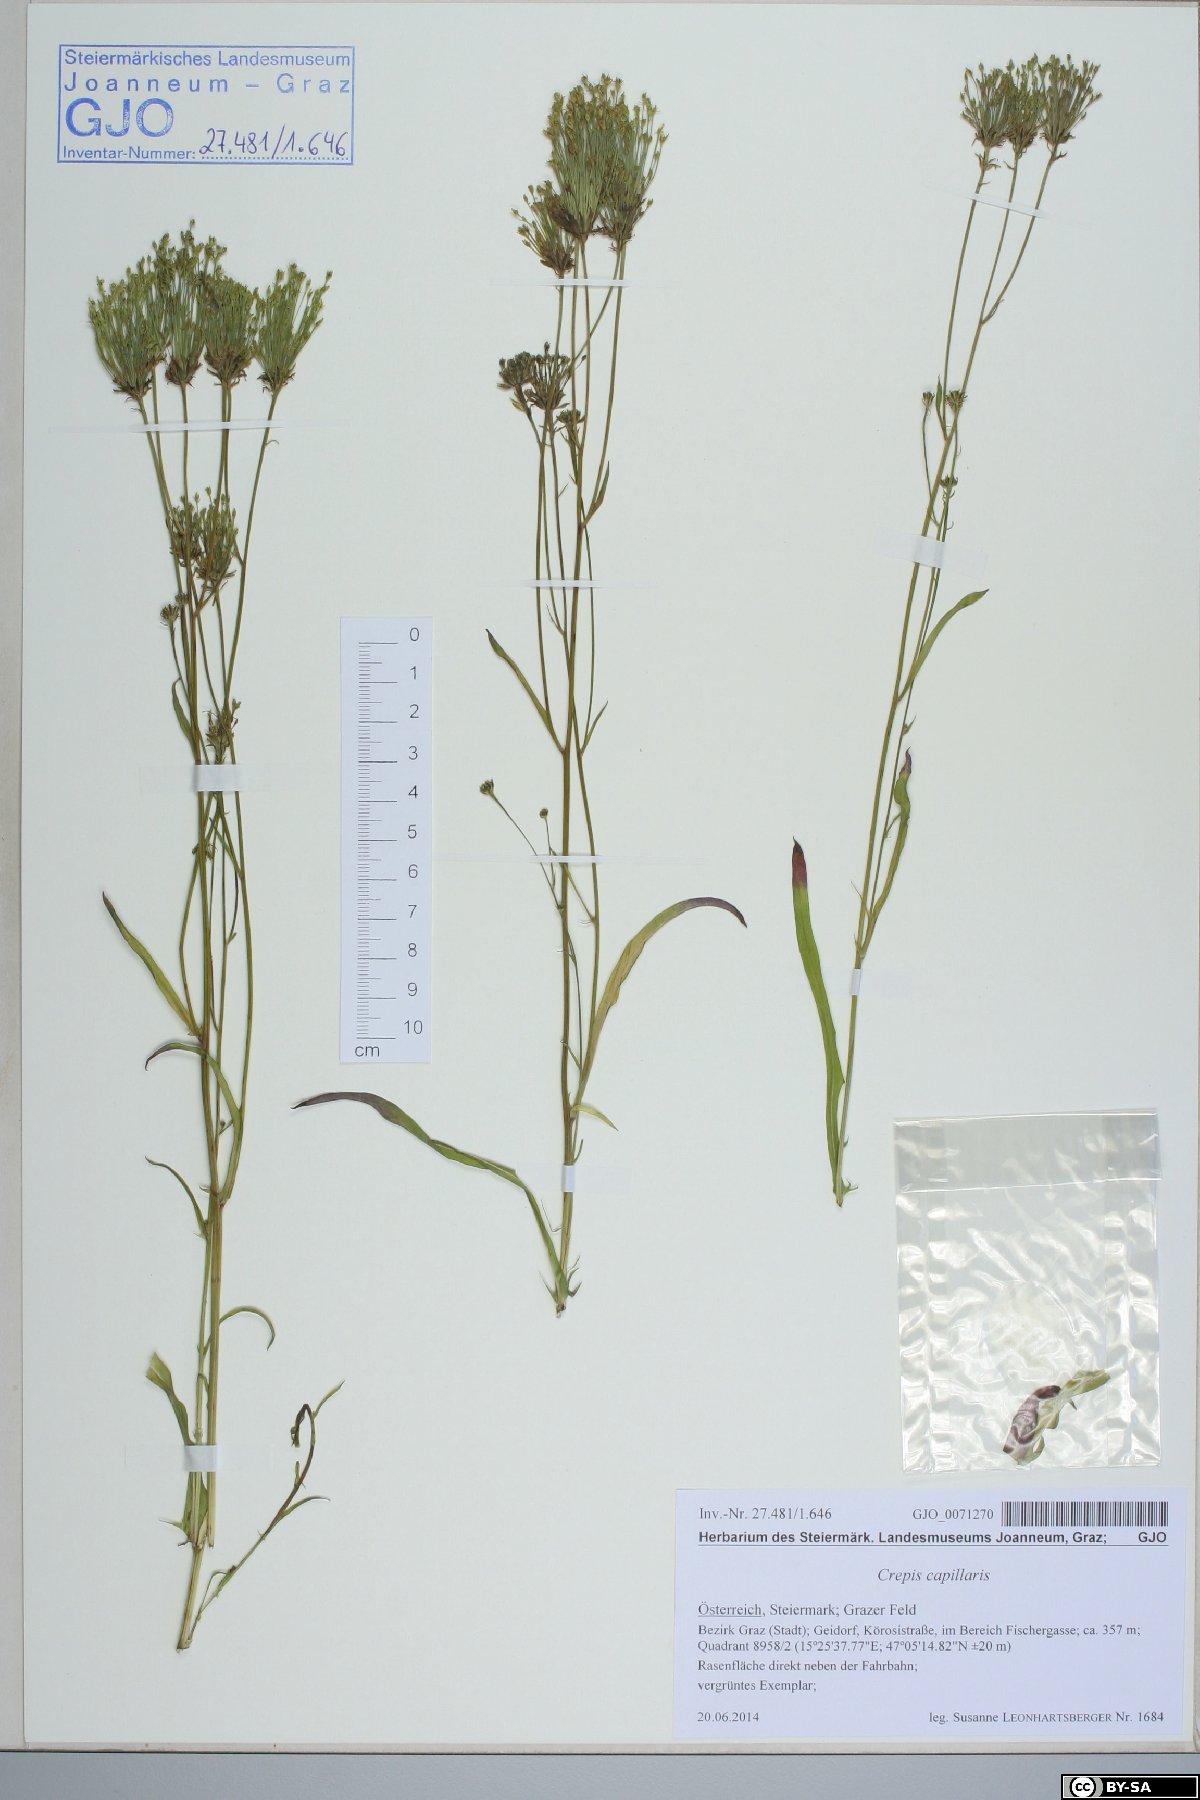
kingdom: Plantae
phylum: Tracheophyta
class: Magnoliopsida
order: Asterales
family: Asteraceae
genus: Crepis
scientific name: Crepis capillaris
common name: Smooth hawksbeard
